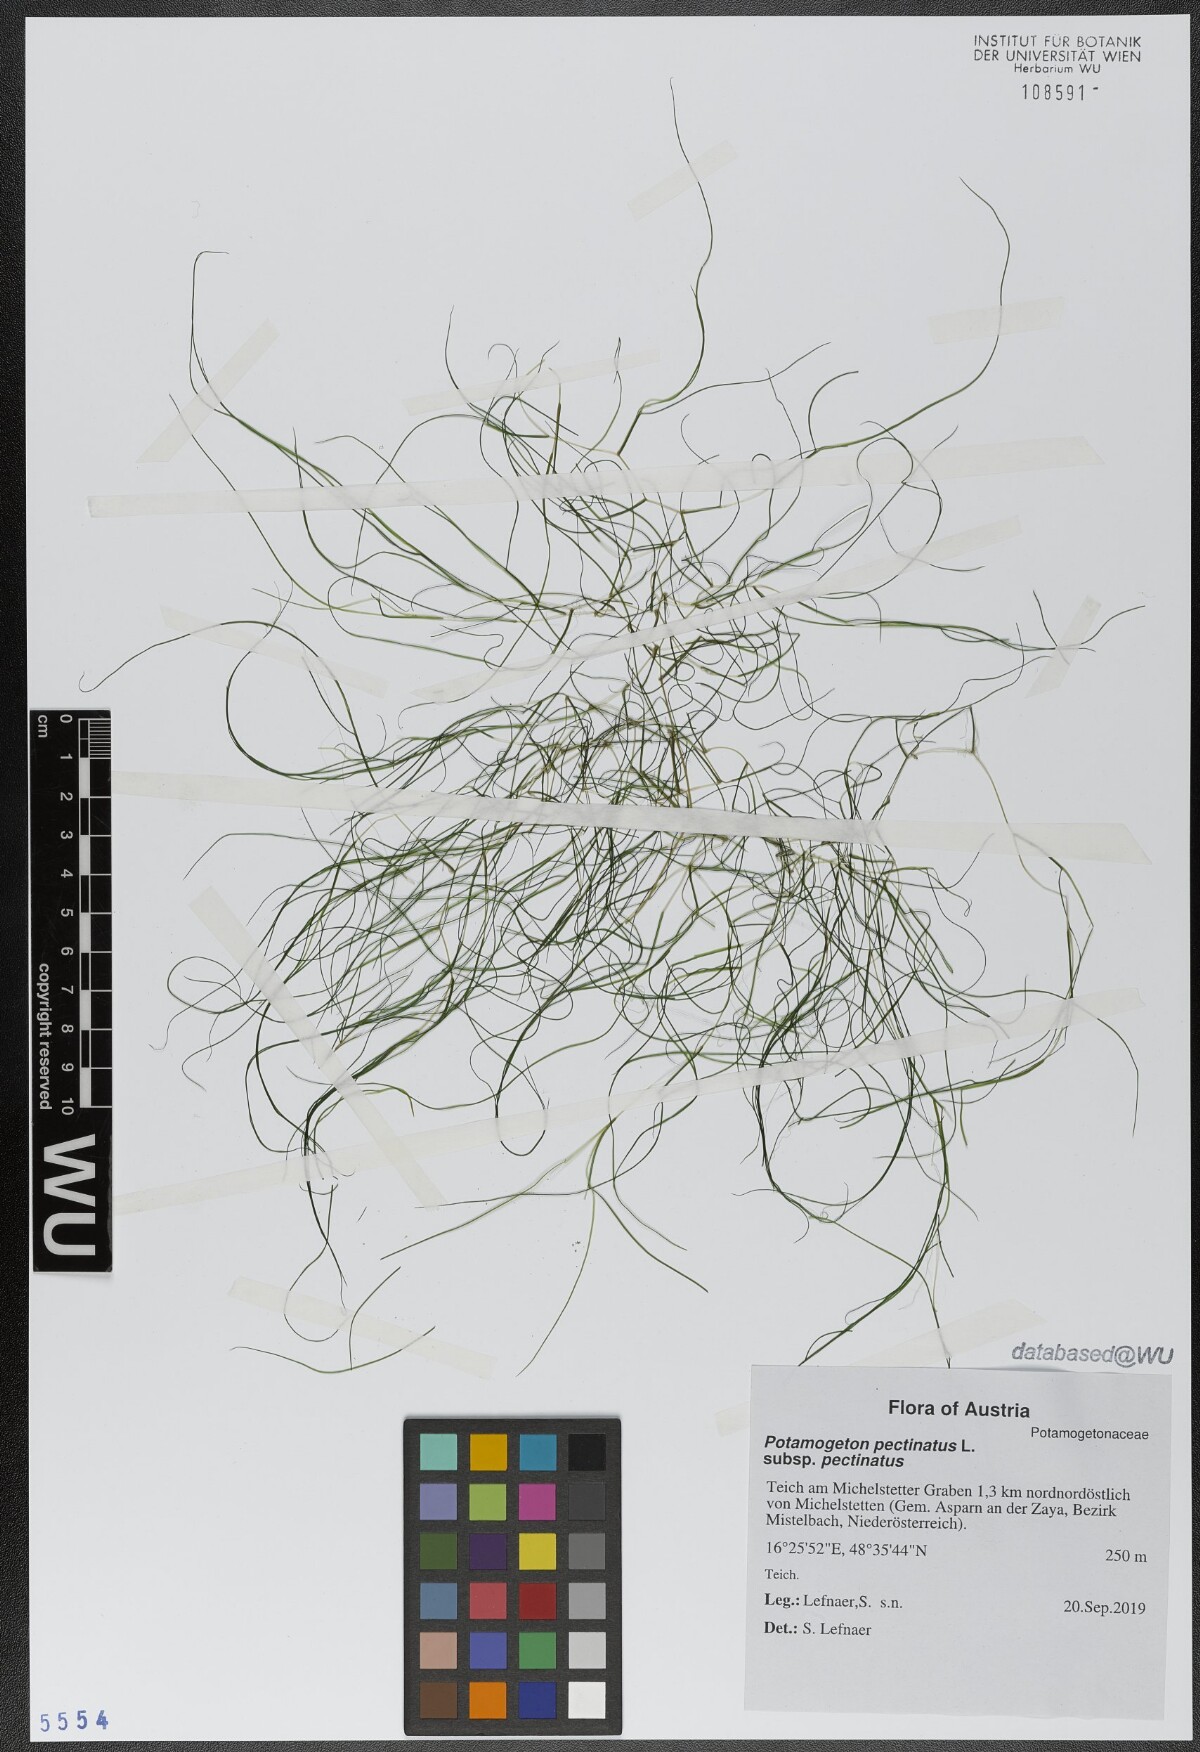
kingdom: Plantae
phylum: Tracheophyta
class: Liliopsida
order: Alismatales
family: Potamogetonaceae
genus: Stuckenia
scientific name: Stuckenia pectinata
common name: Sago pondweed
